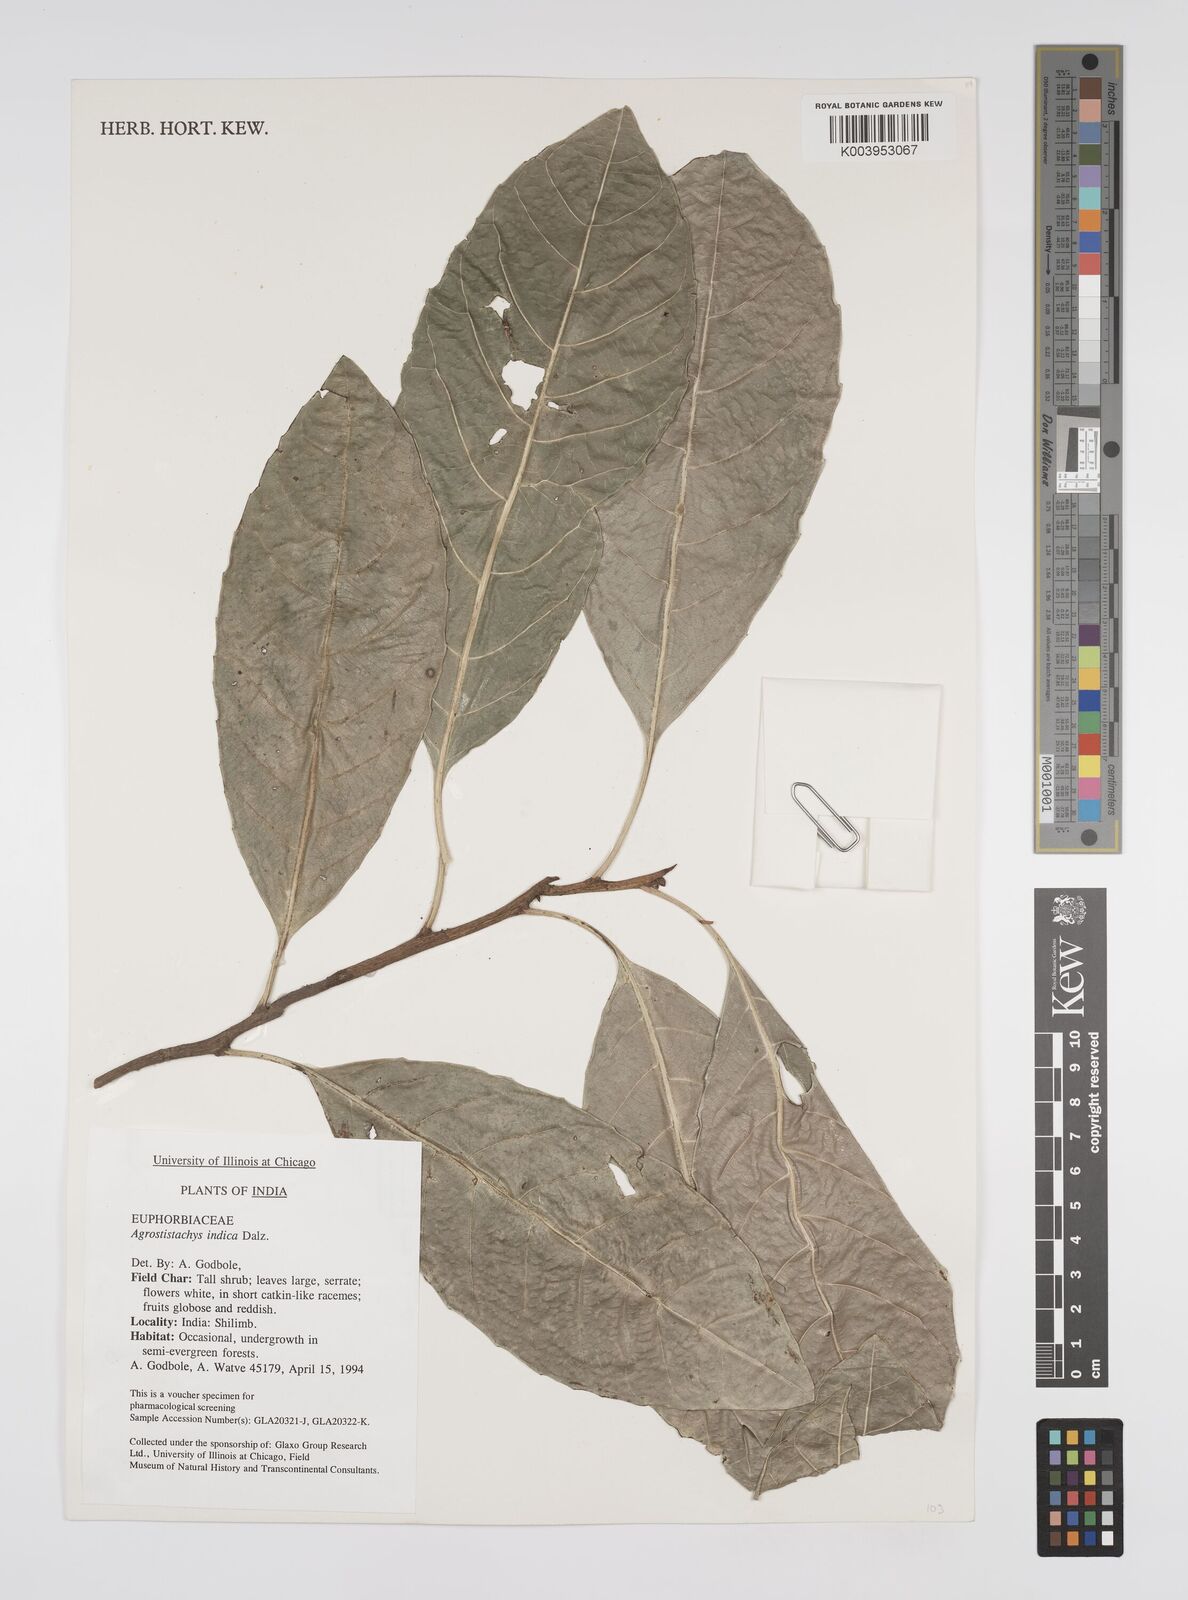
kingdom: Plantae
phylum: Tracheophyta
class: Magnoliopsida
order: Malpighiales
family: Euphorbiaceae
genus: Agrostistachys
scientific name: Agrostistachys indica
